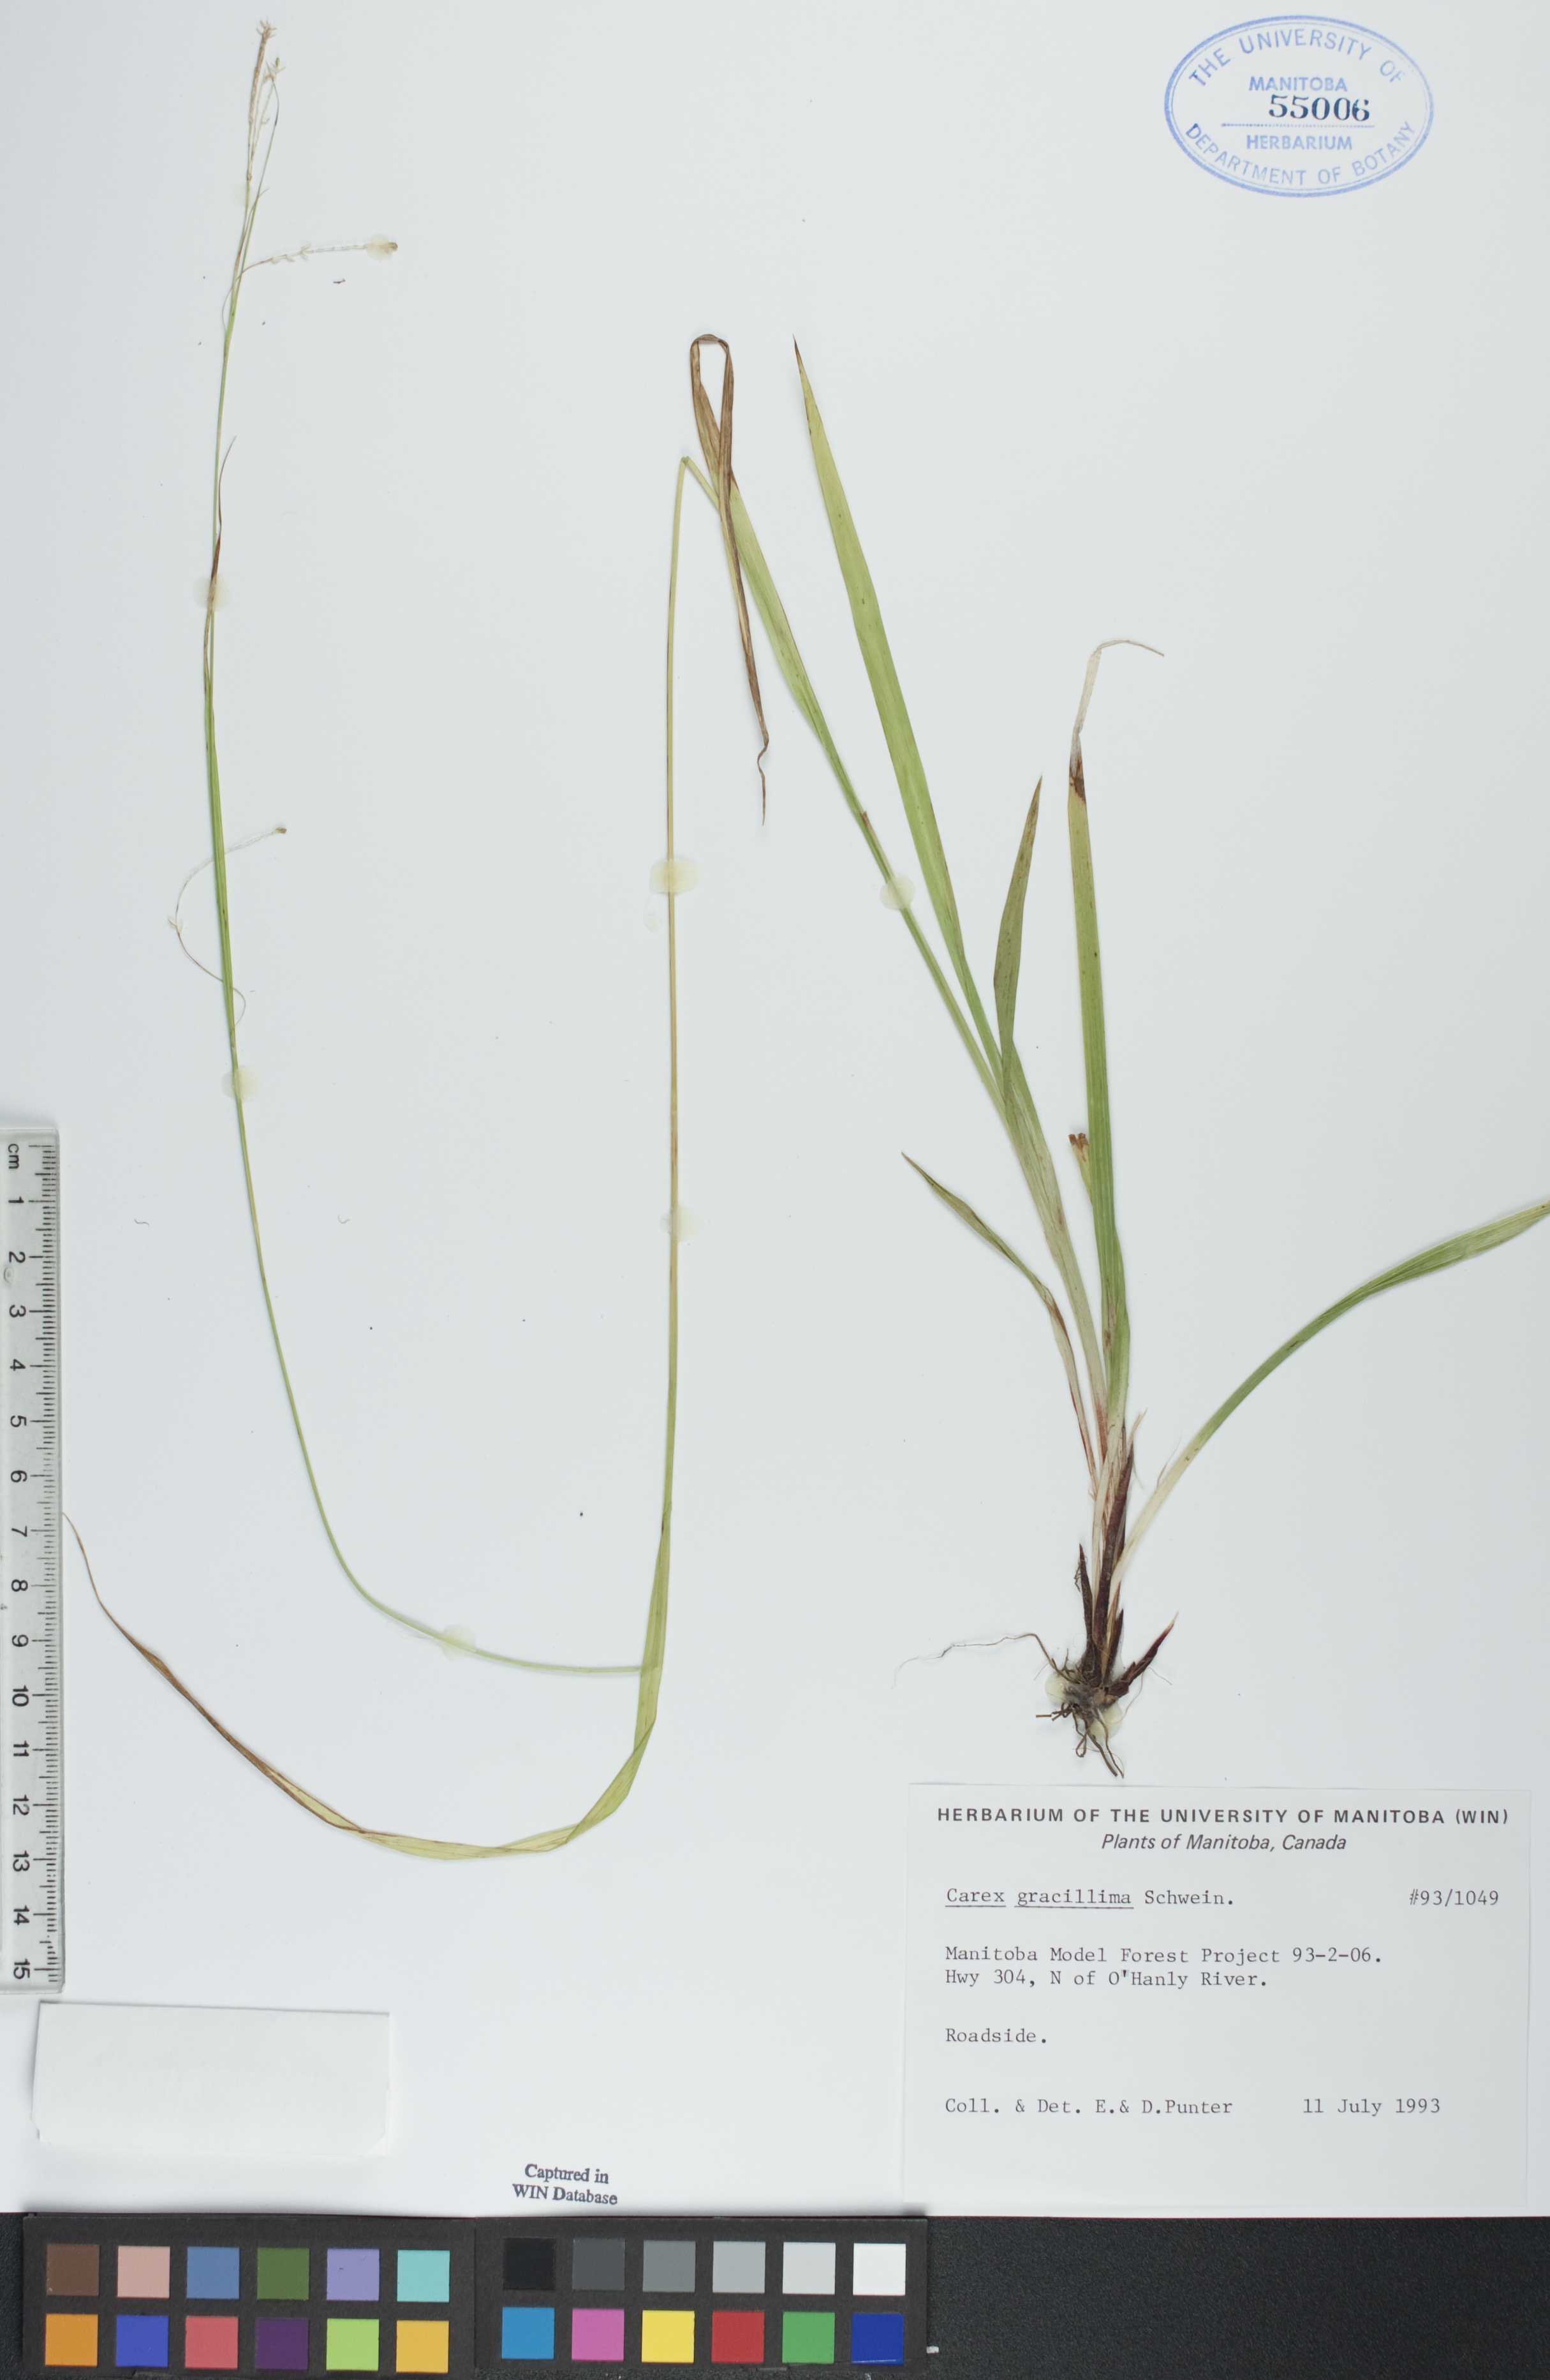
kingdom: Plantae
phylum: Tracheophyta
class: Liliopsida
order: Poales
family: Cyperaceae
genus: Carex
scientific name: Carex gracillima
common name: Graceful sedge
